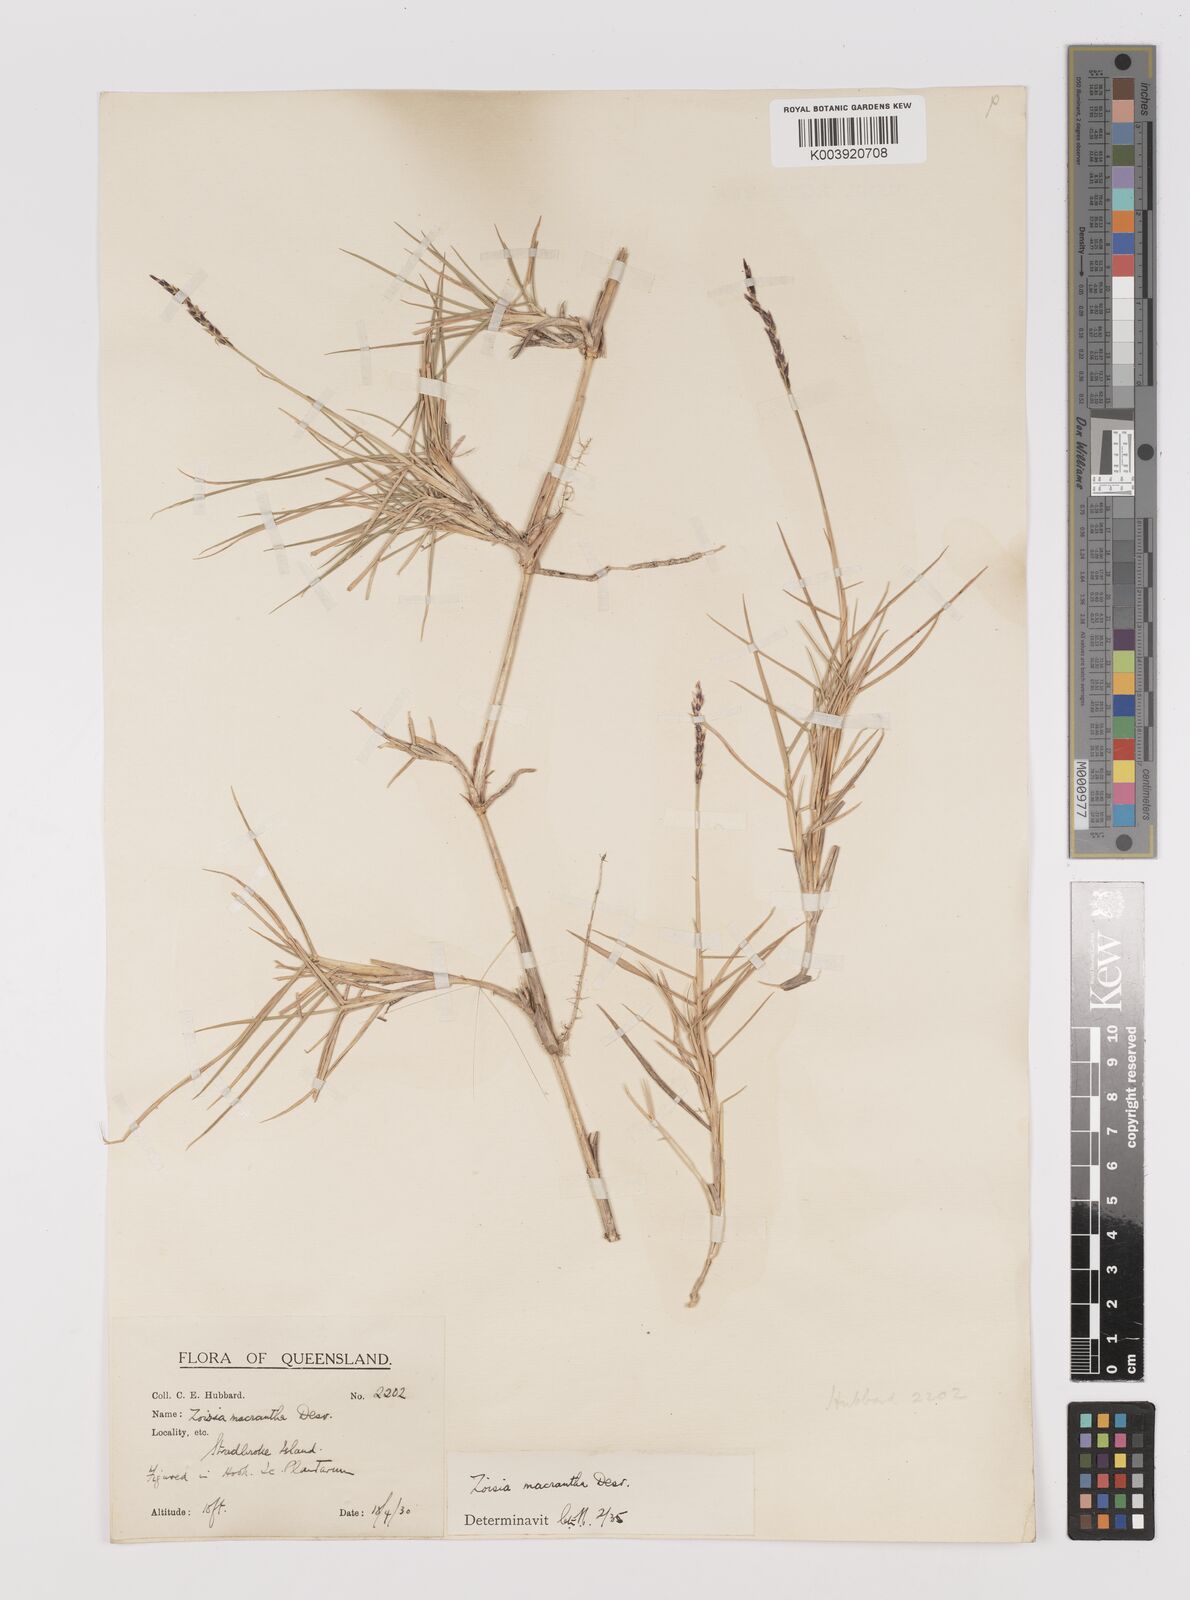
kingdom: Plantae
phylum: Tracheophyta
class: Liliopsida
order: Poales
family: Poaceae
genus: Zoysia
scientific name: Zoysia macrantha
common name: Korean lawn grass
